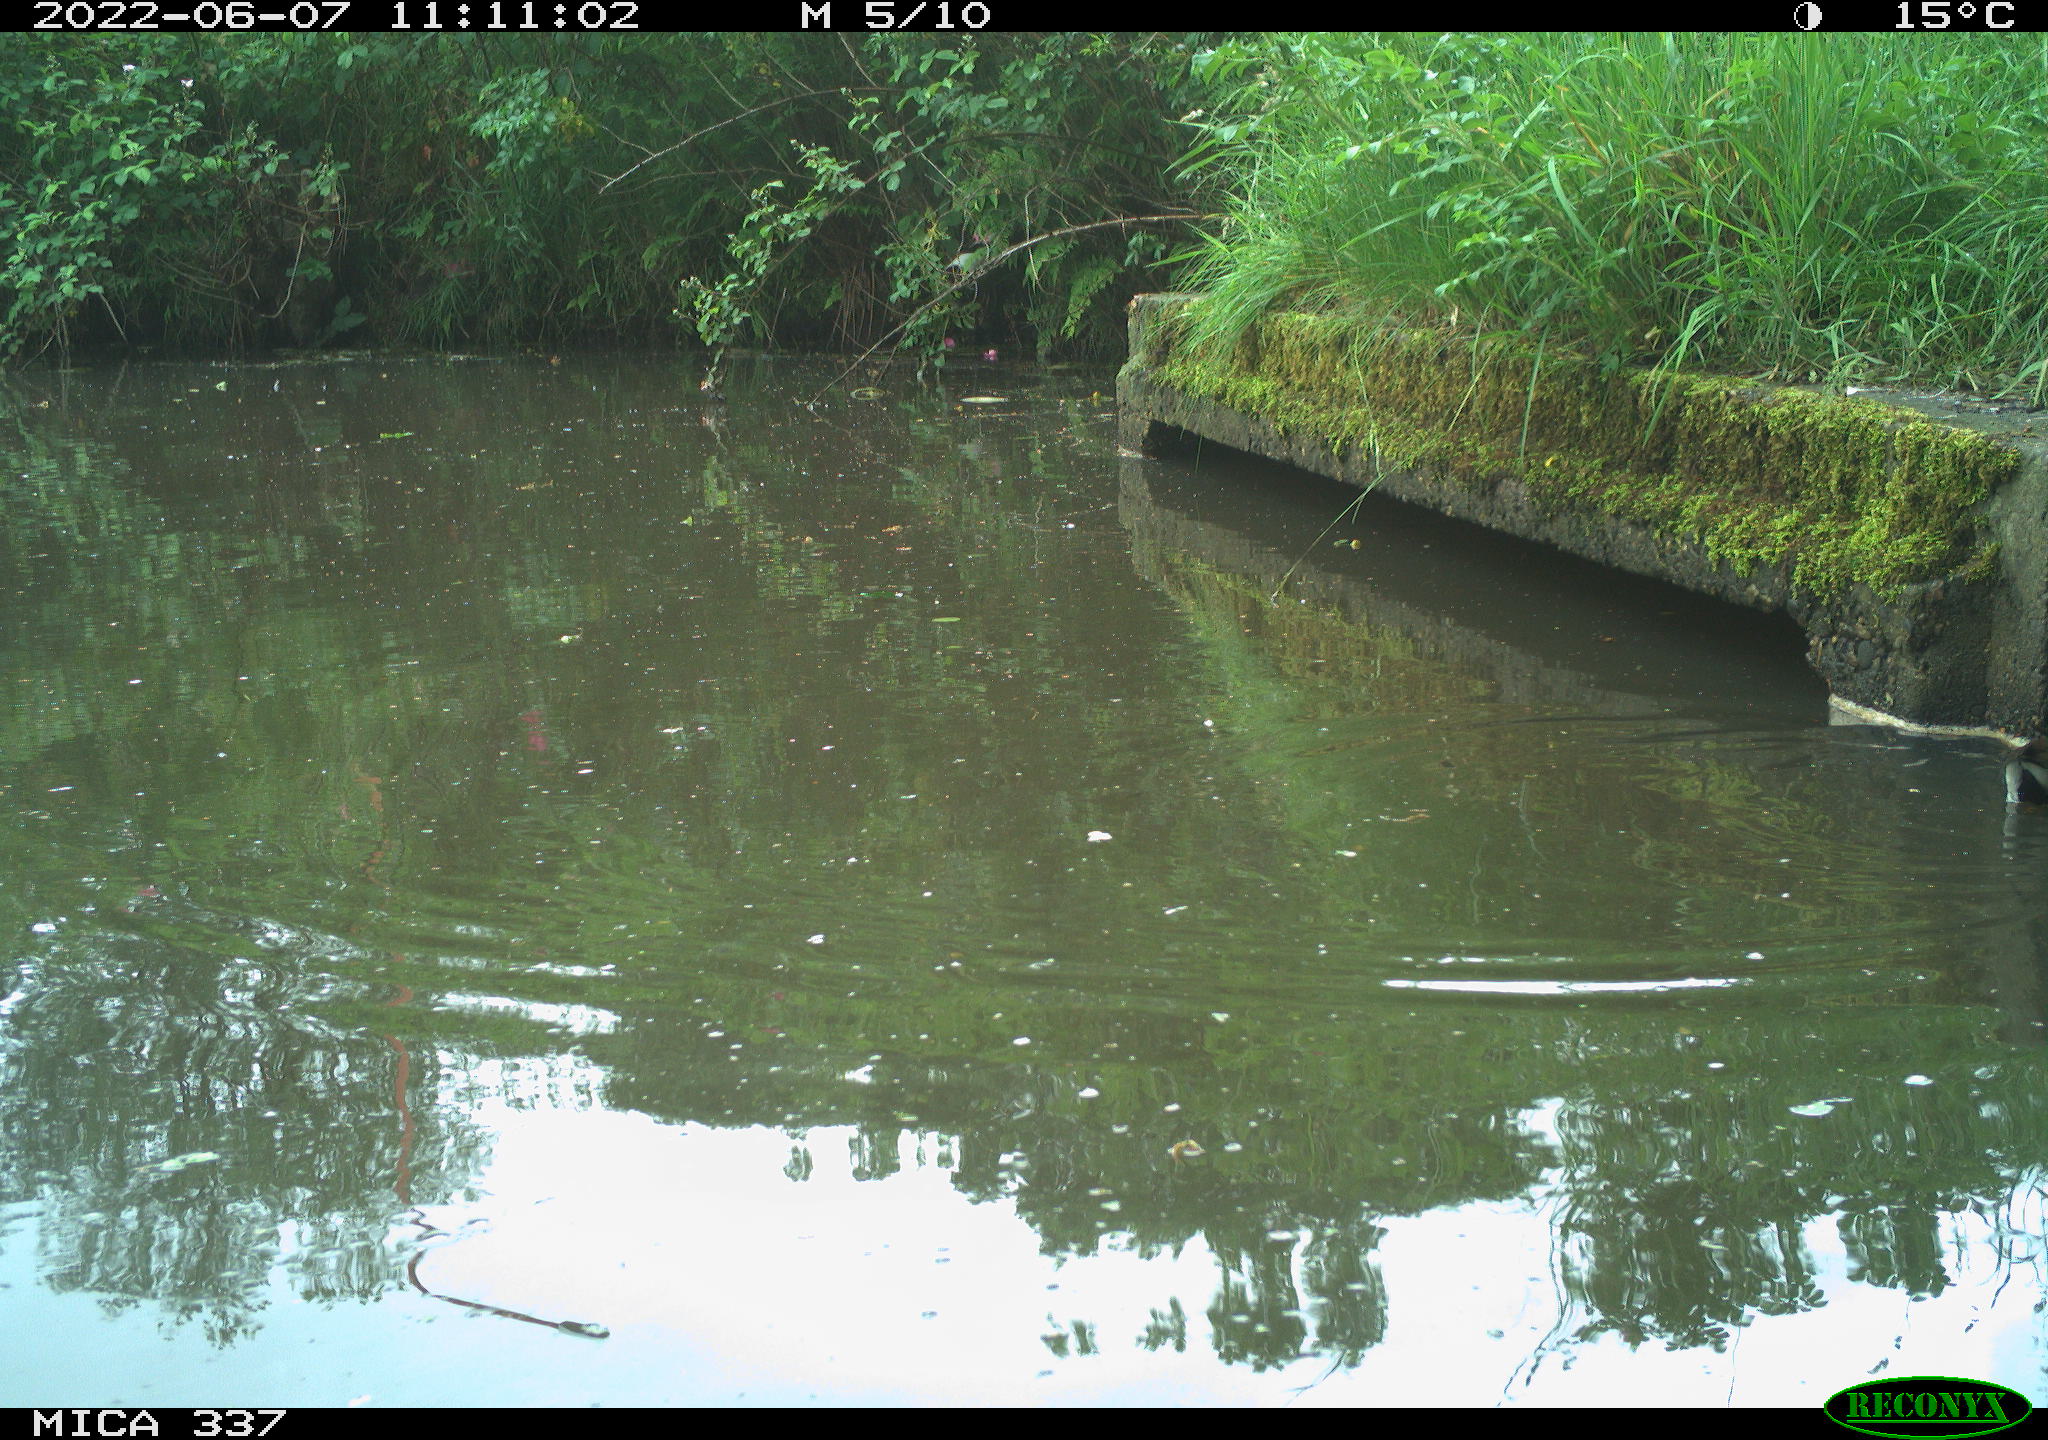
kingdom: Animalia
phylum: Chordata
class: Aves
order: Gruiformes
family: Rallidae
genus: Gallinula
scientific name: Gallinula chloropus
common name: Common moorhen
